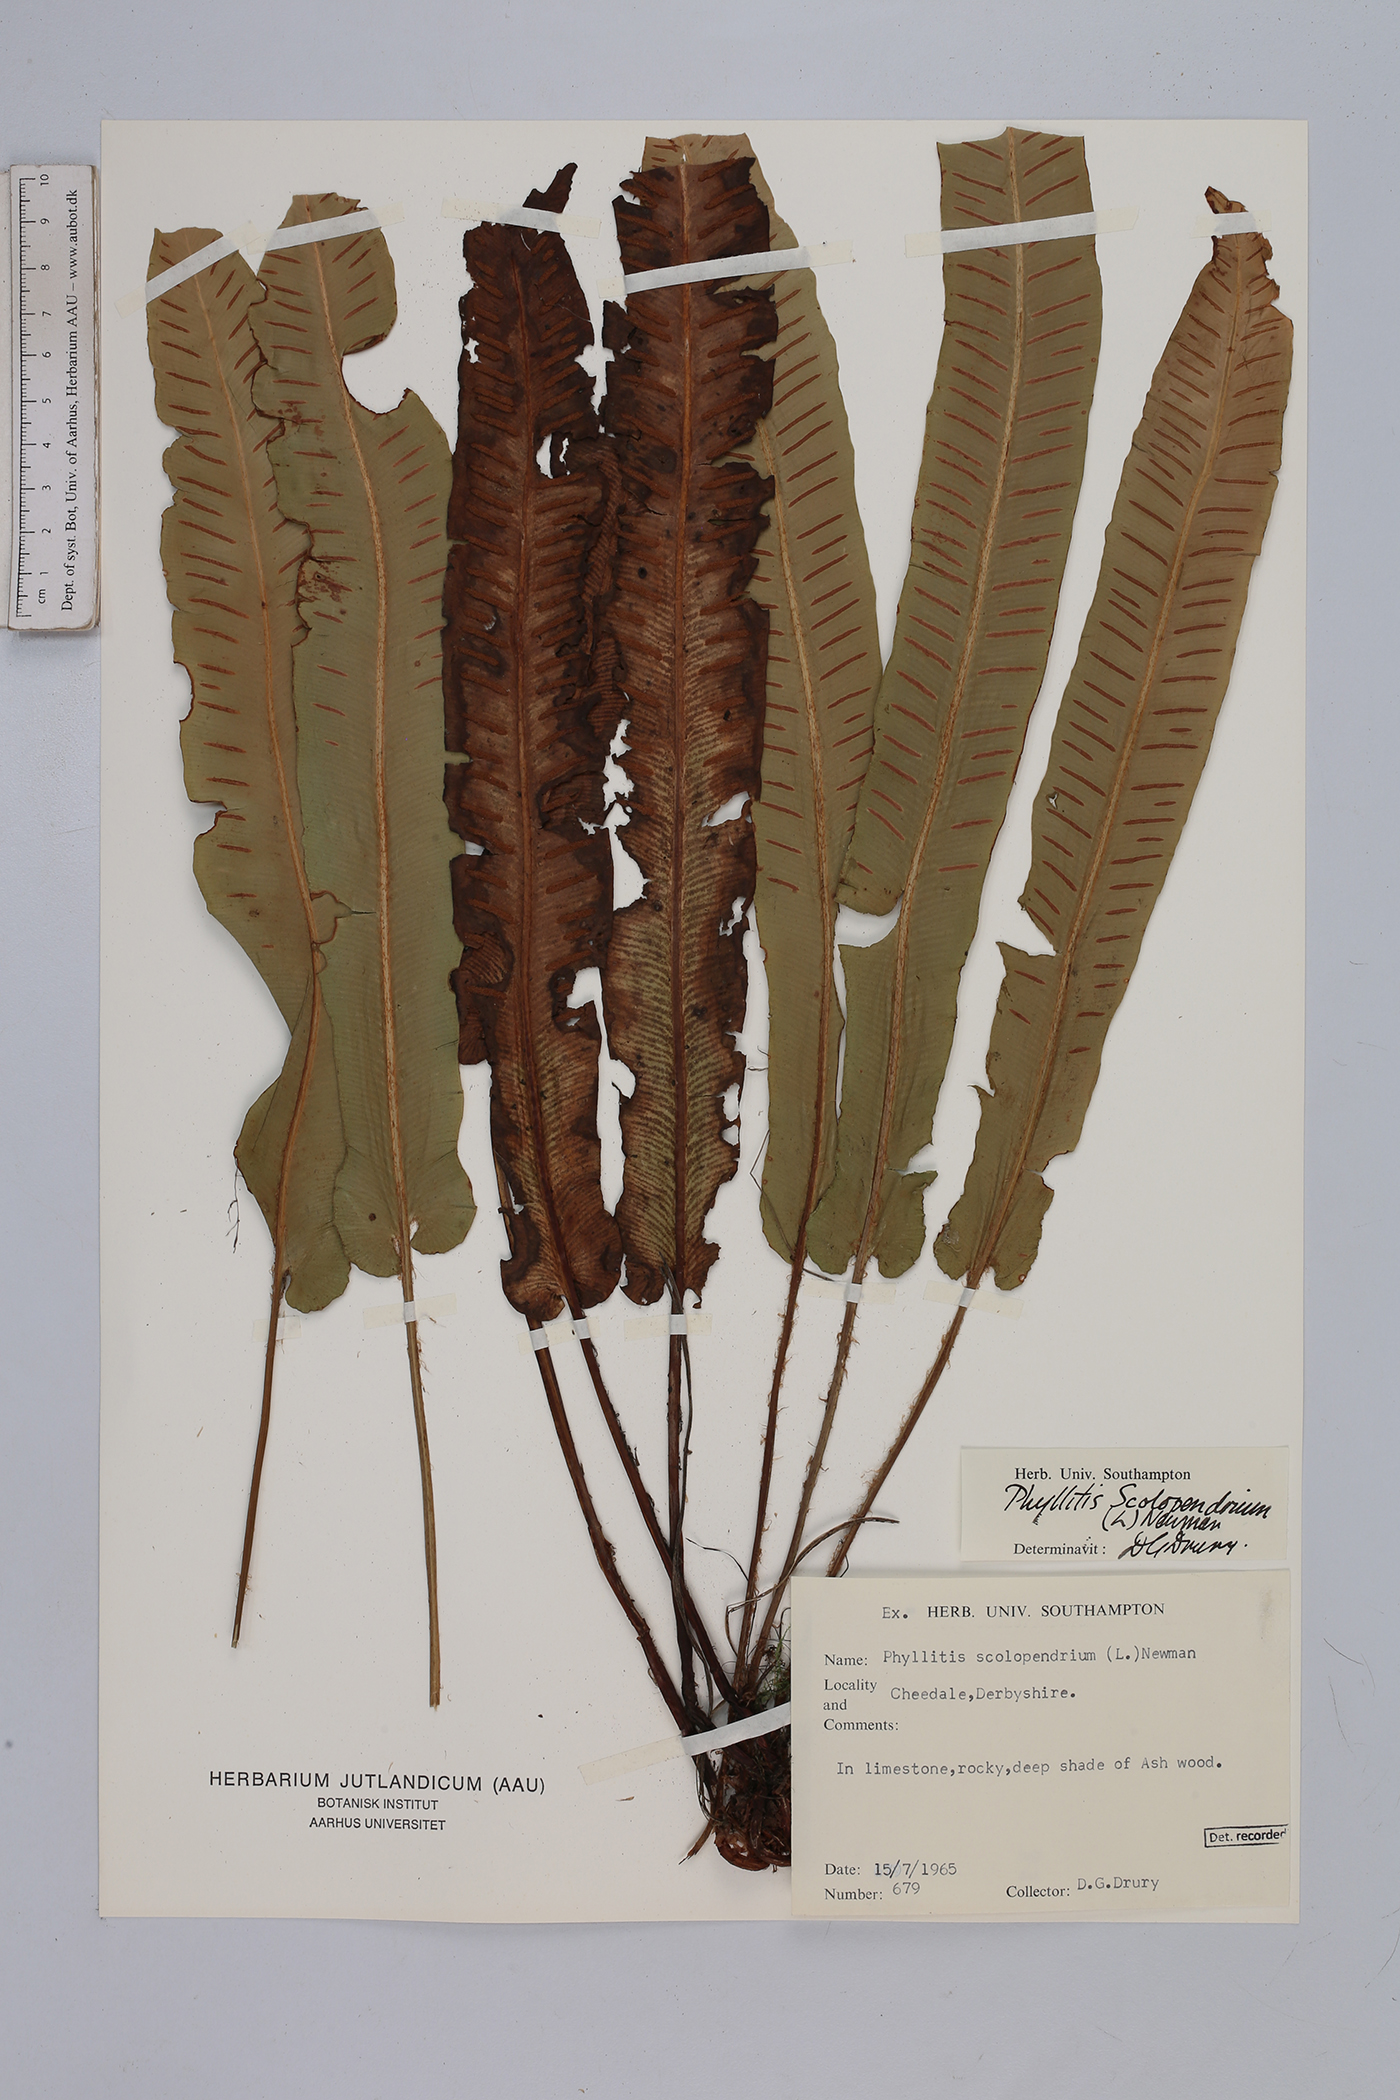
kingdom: Plantae
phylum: Tracheophyta
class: Polypodiopsida
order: Polypodiales
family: Aspleniaceae
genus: Asplenium
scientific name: Asplenium scolopendrium
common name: Hart's-tongue fern
